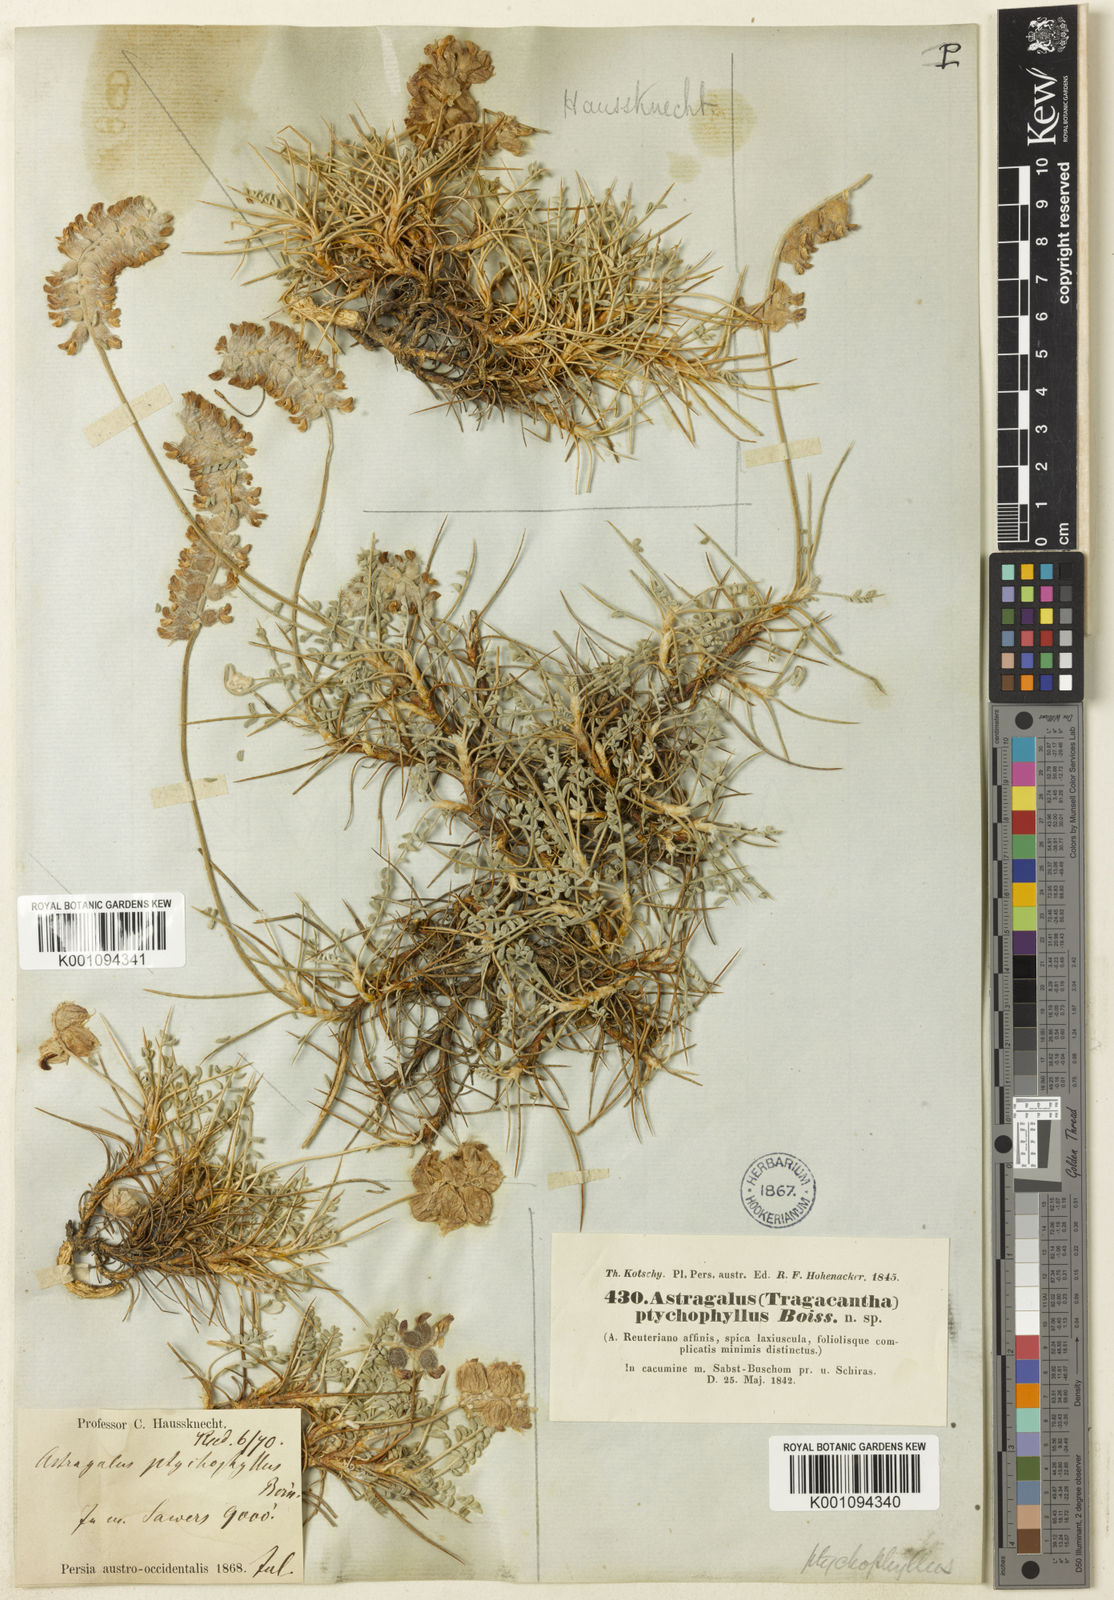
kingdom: Plantae
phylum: Tracheophyta
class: Magnoliopsida
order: Fabales
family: Fabaceae
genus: Astragalus
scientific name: Astragalus
